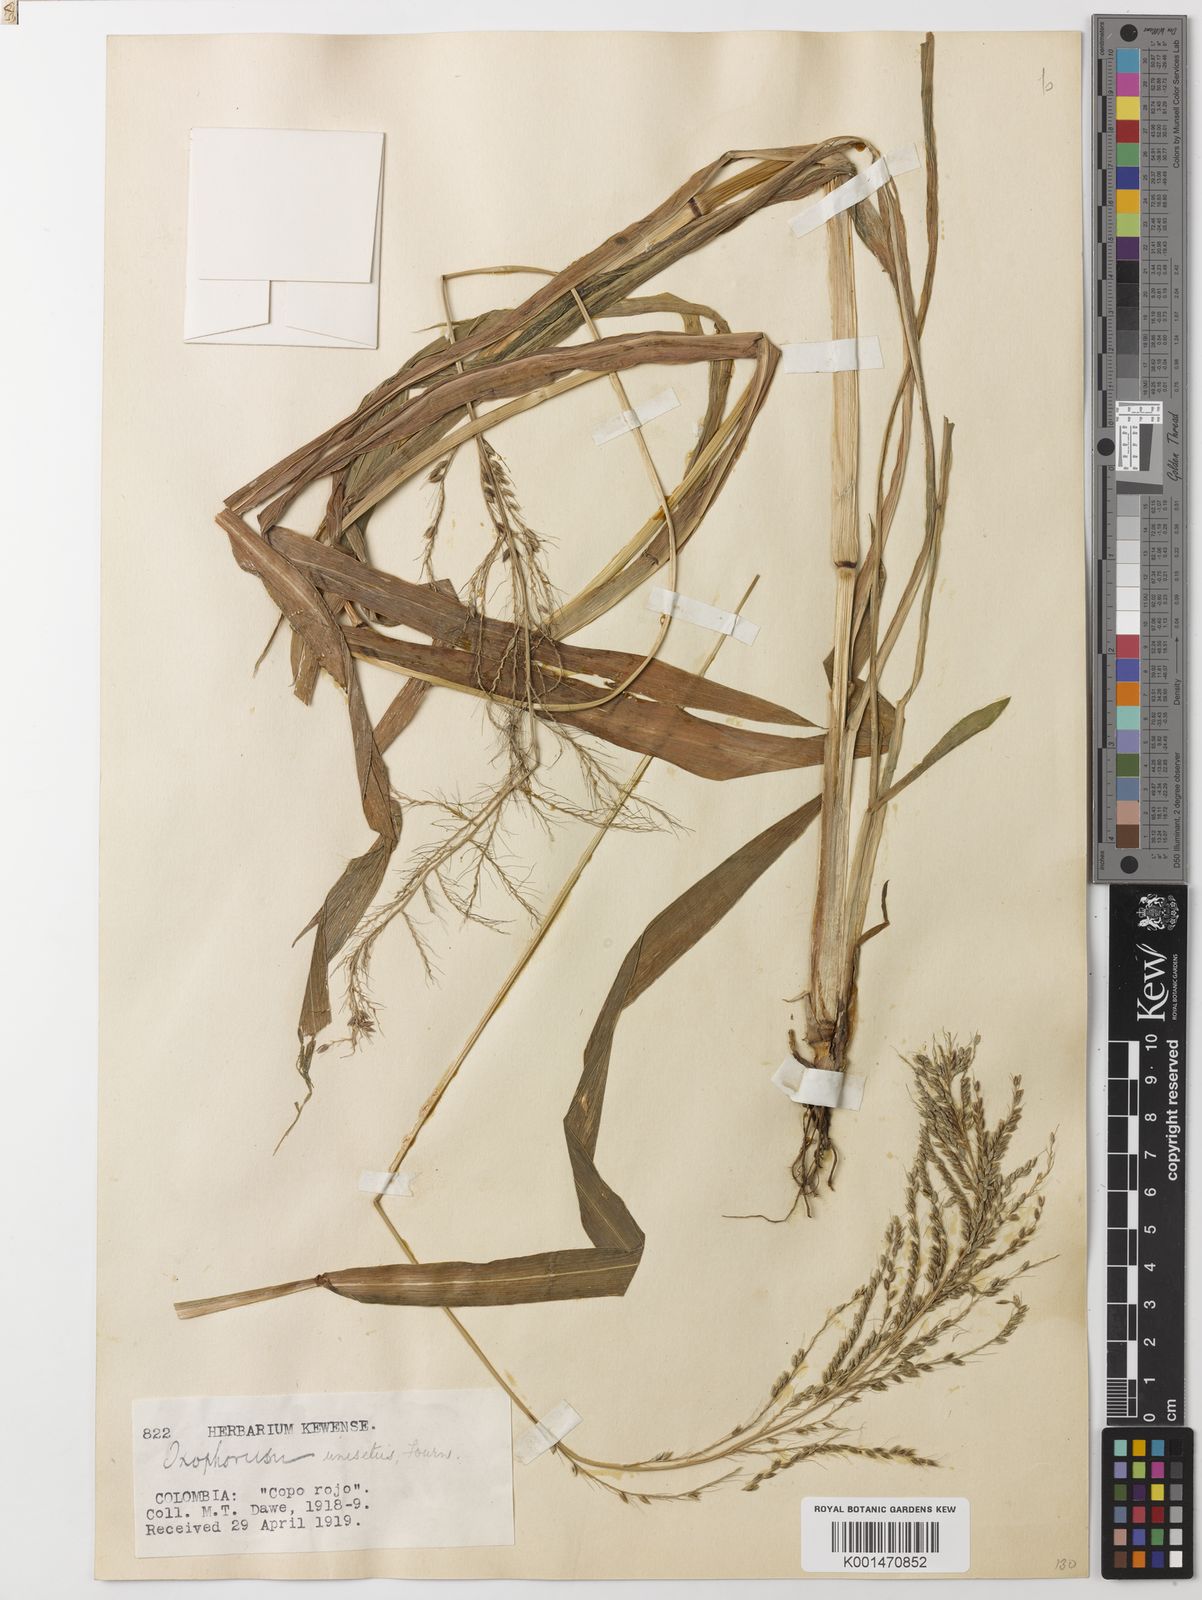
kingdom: Plantae
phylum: Tracheophyta
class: Liliopsida
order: Poales
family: Poaceae
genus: Ixophorus
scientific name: Ixophorus unisetus
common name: Crane grass
